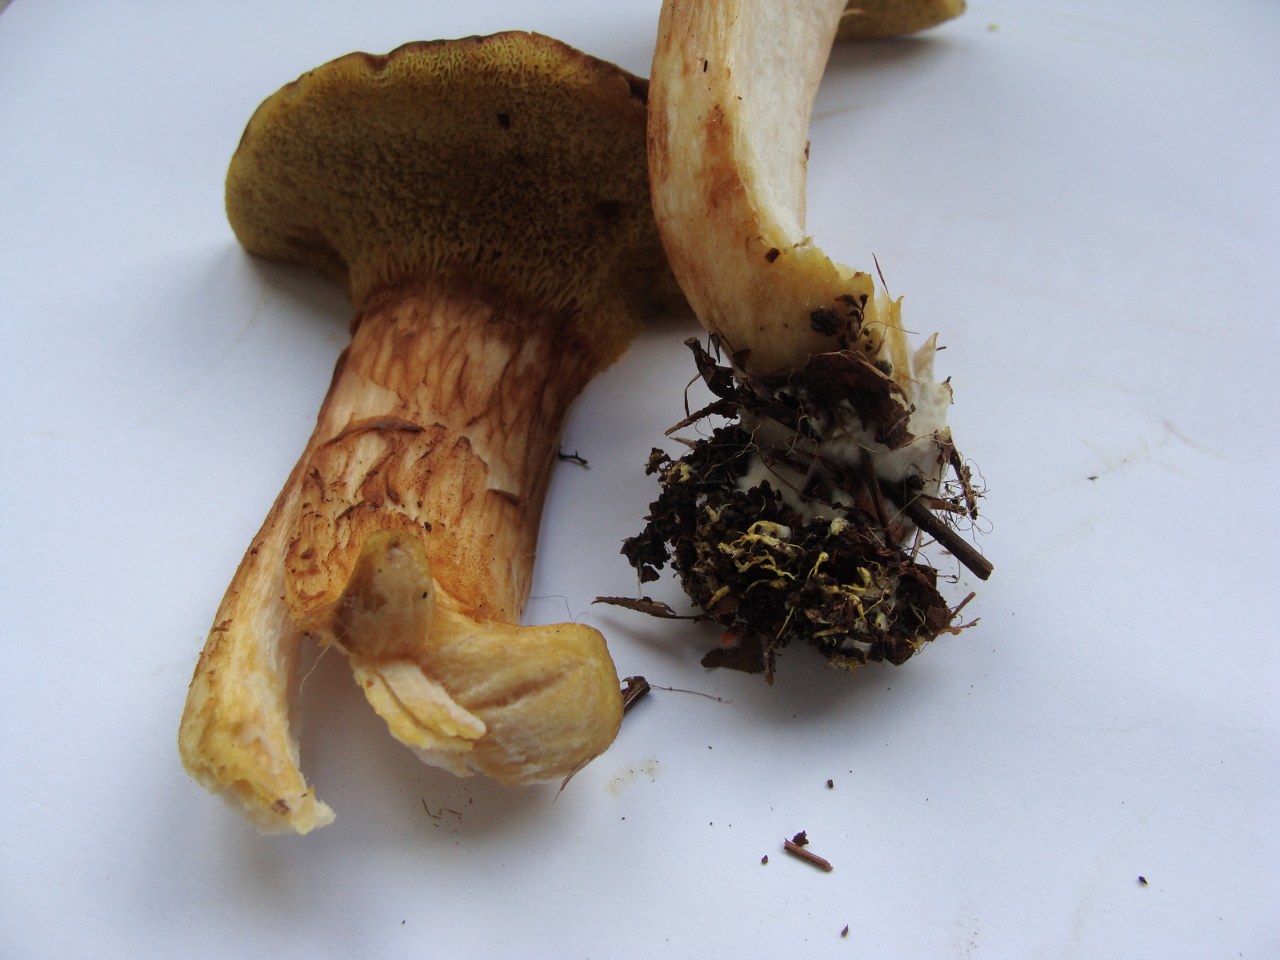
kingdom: Fungi
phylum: Basidiomycota
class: Agaricomycetes
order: Boletales
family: Boletaceae
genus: Xerocomus
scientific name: Xerocomus ferrugineus
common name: vaskeskinds-rørhat
